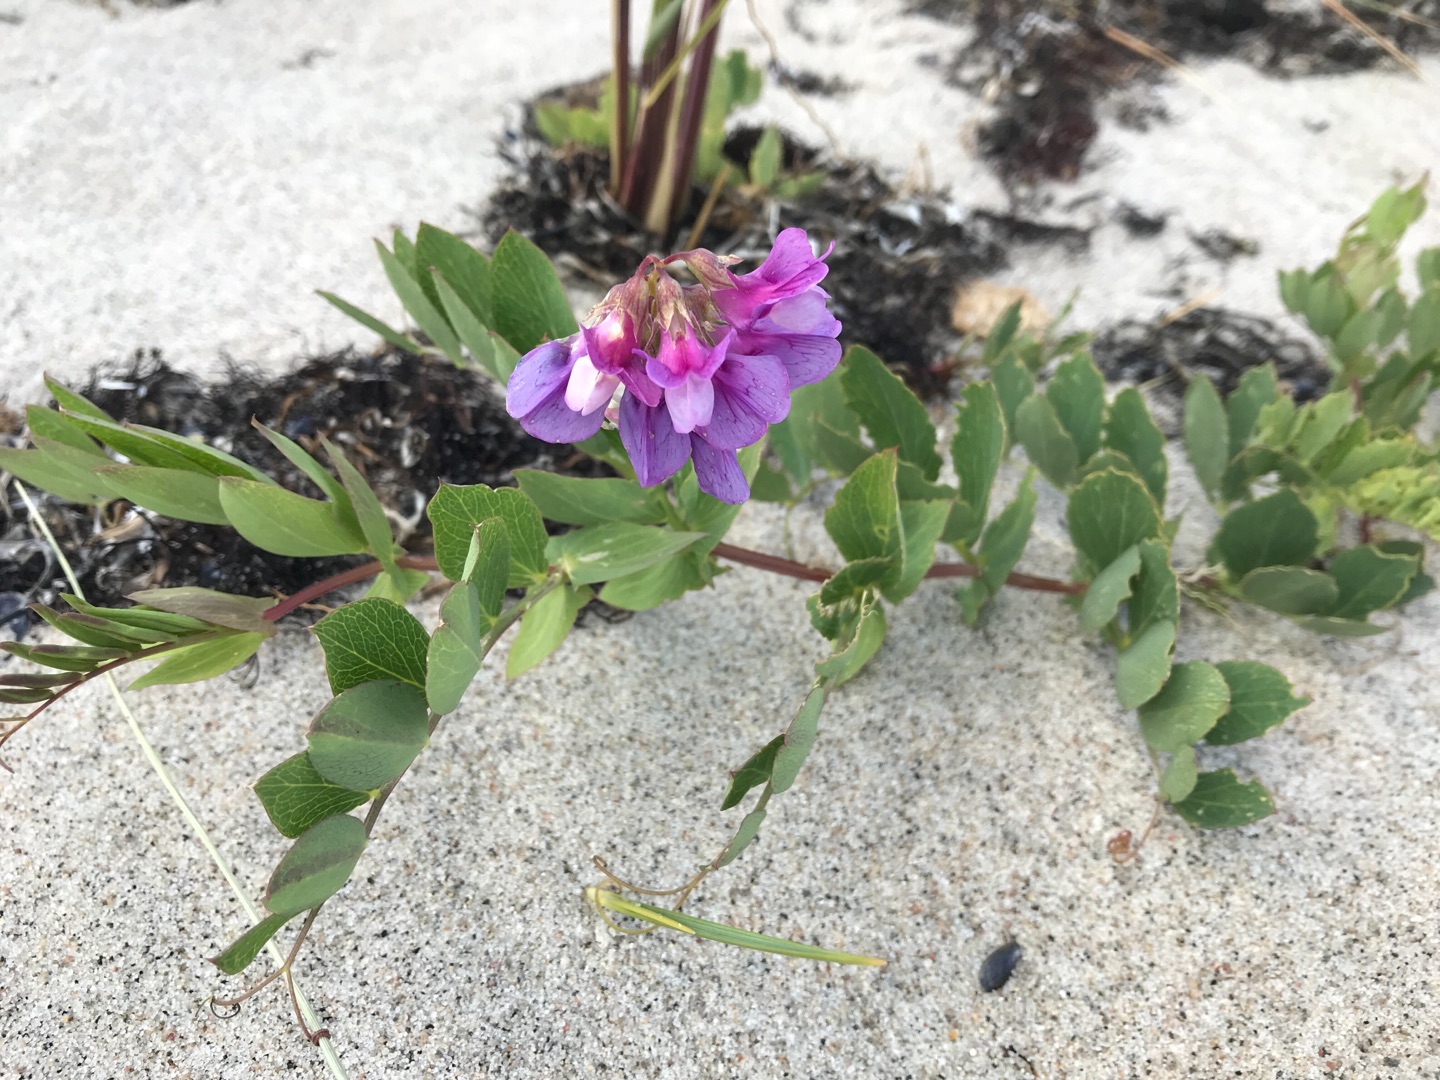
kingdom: Plantae
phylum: Tracheophyta
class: Magnoliopsida
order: Fabales
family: Fabaceae
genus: Lathyrus
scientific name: Lathyrus japonicus
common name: Strand-fladbælg
